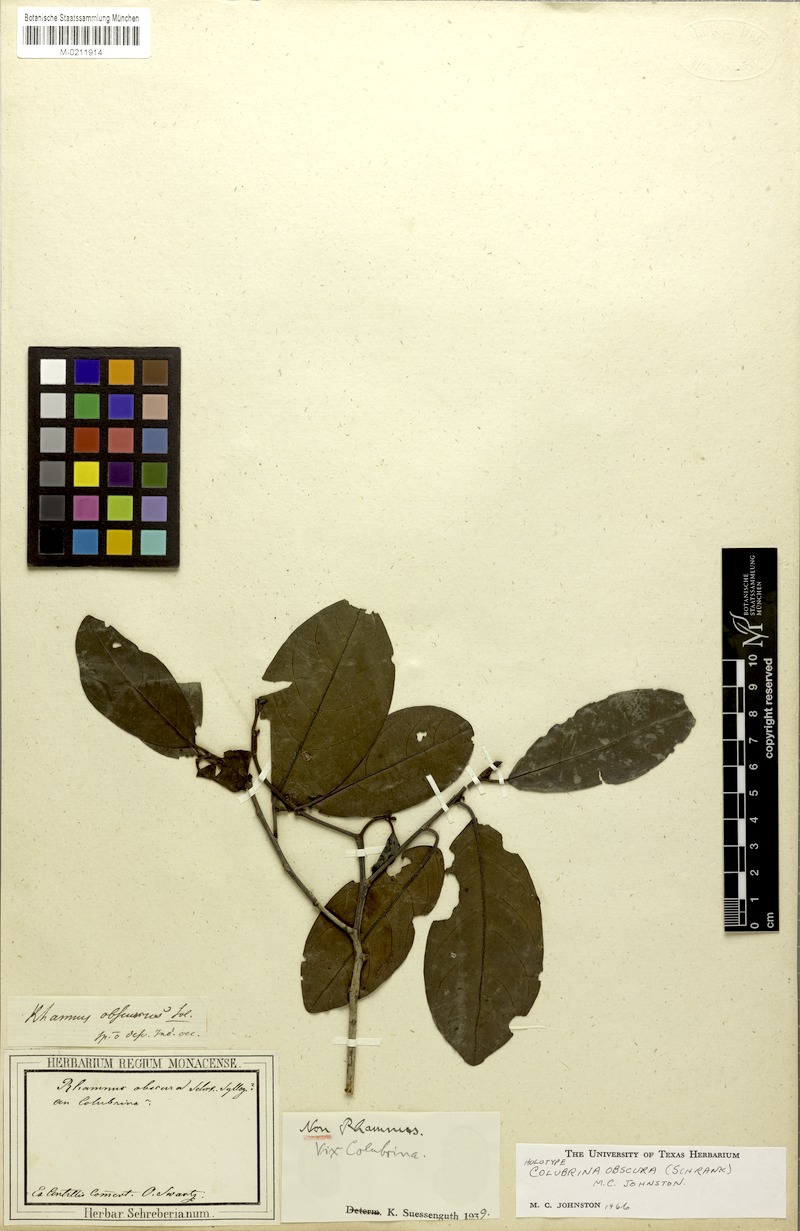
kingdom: Plantae
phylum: Tracheophyta
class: Magnoliopsida
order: Rosales
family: Rhamnaceae
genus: Colubrina
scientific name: Colubrina obscura
